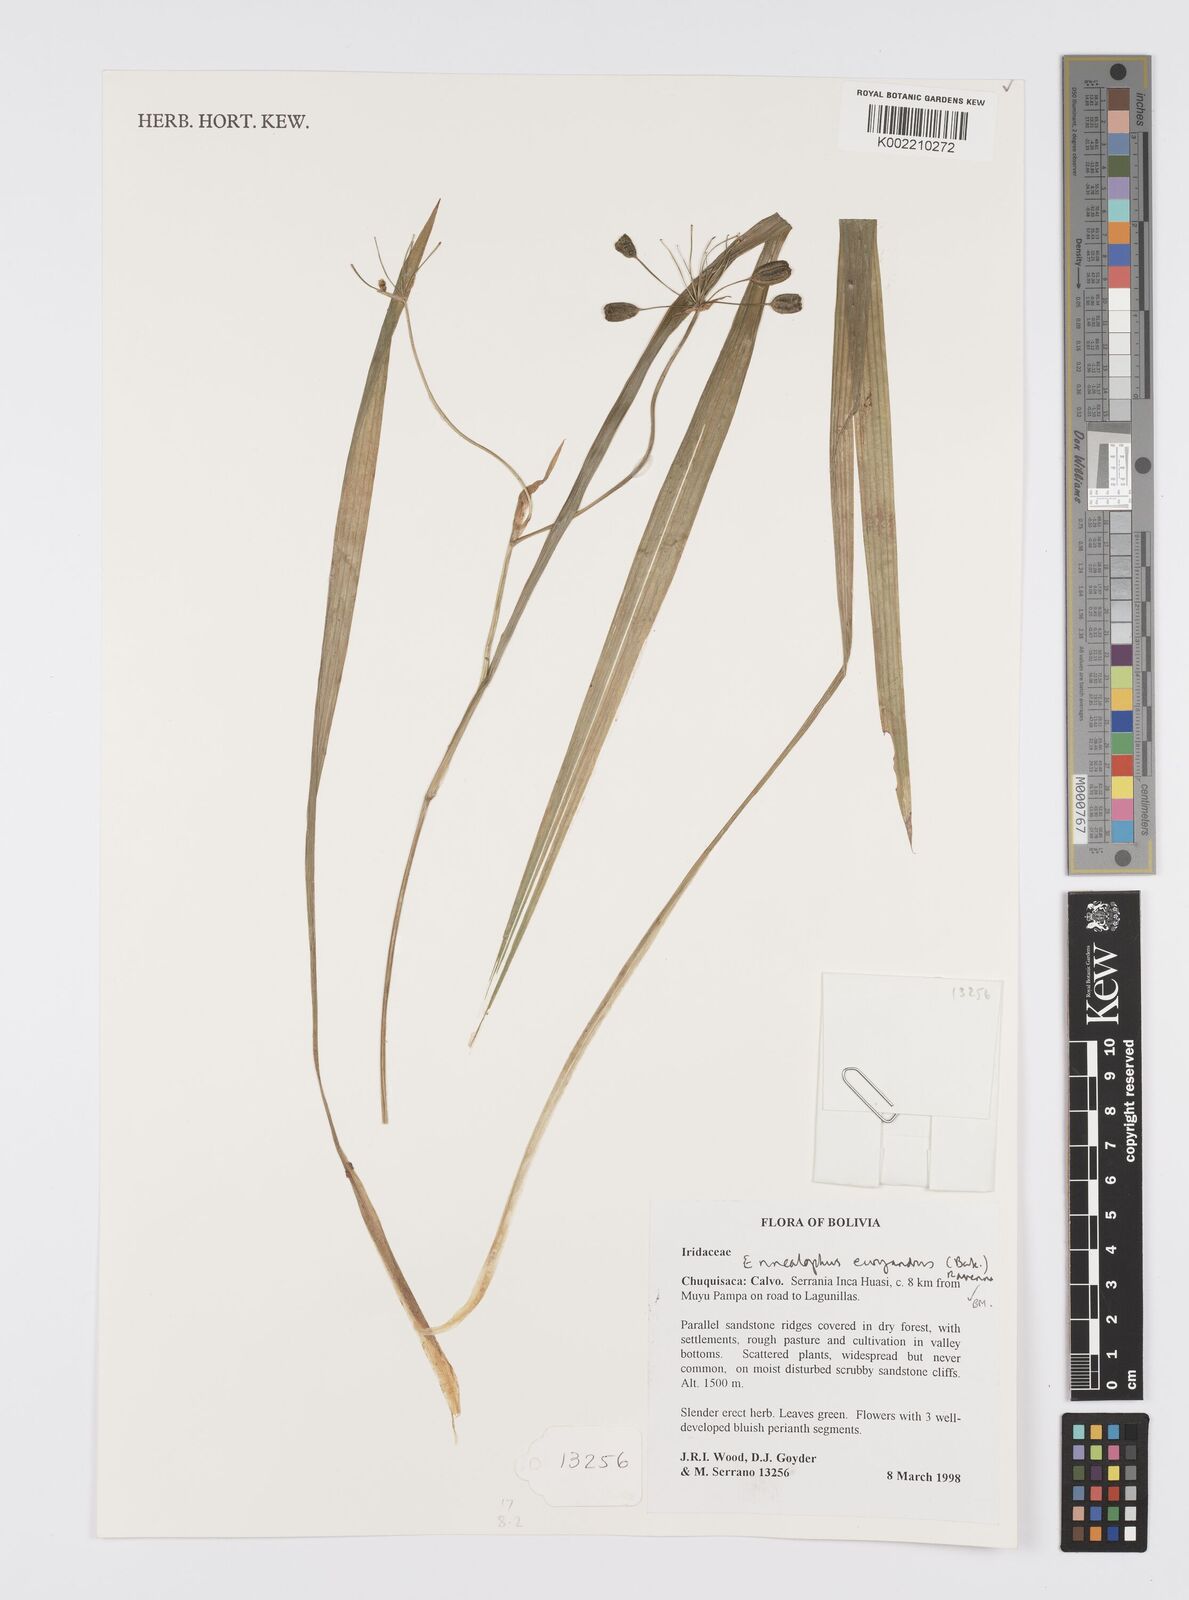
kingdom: Plantae
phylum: Tracheophyta
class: Liliopsida
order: Asparagales
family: Iridaceae
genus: Ennealophus
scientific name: Ennealophus euryandrus
